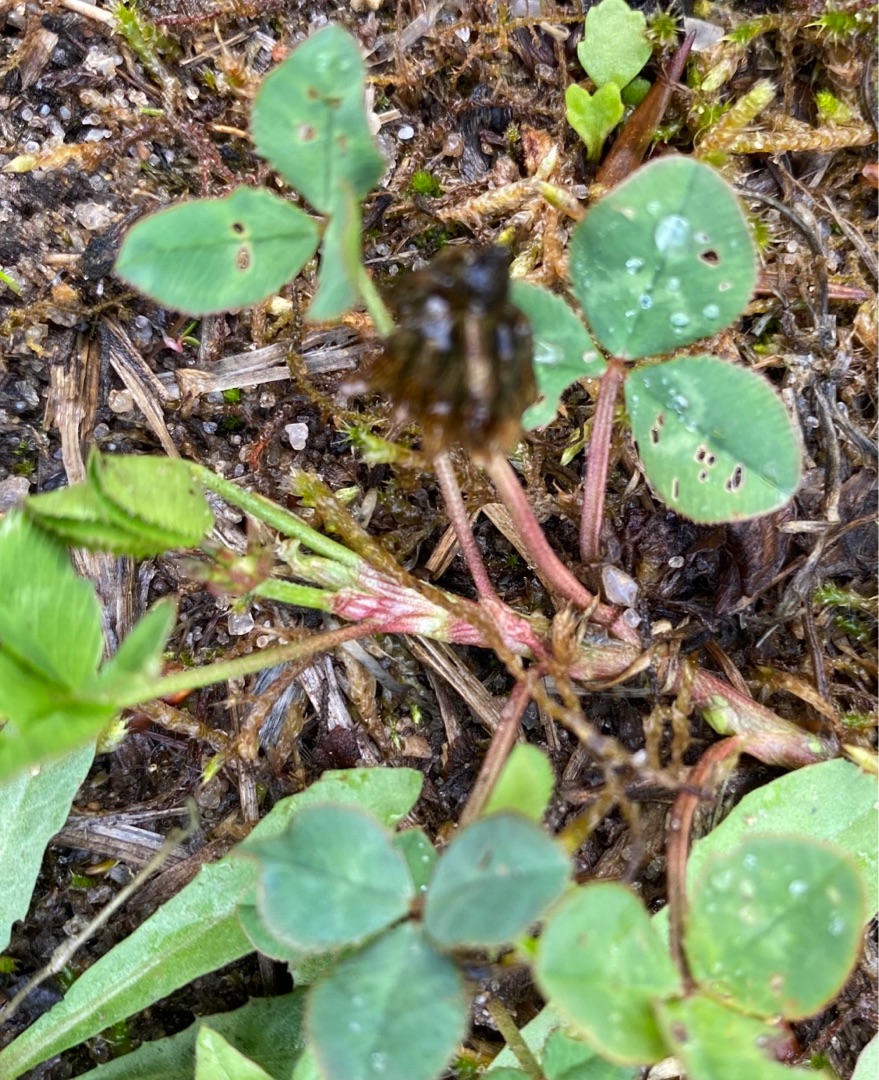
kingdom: Plantae
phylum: Tracheophyta
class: Magnoliopsida
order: Fabales
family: Fabaceae
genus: Trifolium
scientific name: Trifolium
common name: Kløverslægten
